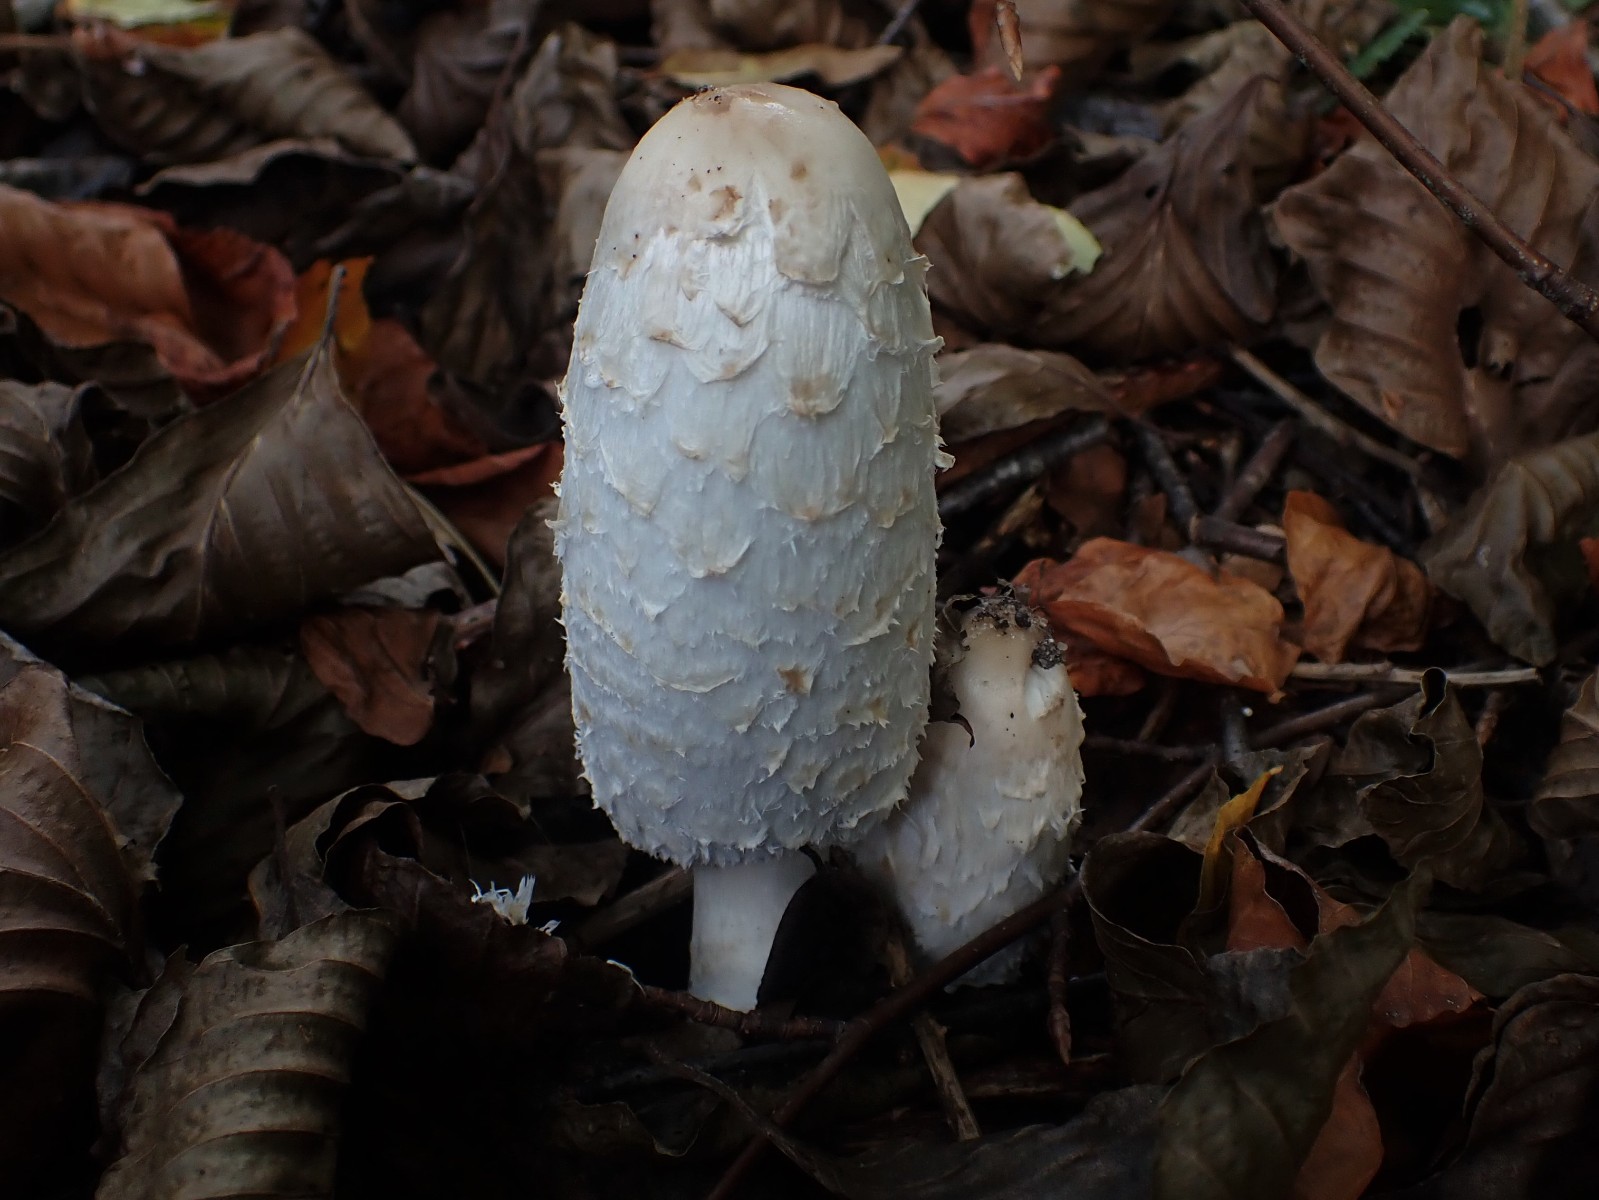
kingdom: Fungi
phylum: Basidiomycota
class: Agaricomycetes
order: Agaricales
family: Agaricaceae
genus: Coprinus
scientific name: Coprinus comatus
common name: stor parykhat
